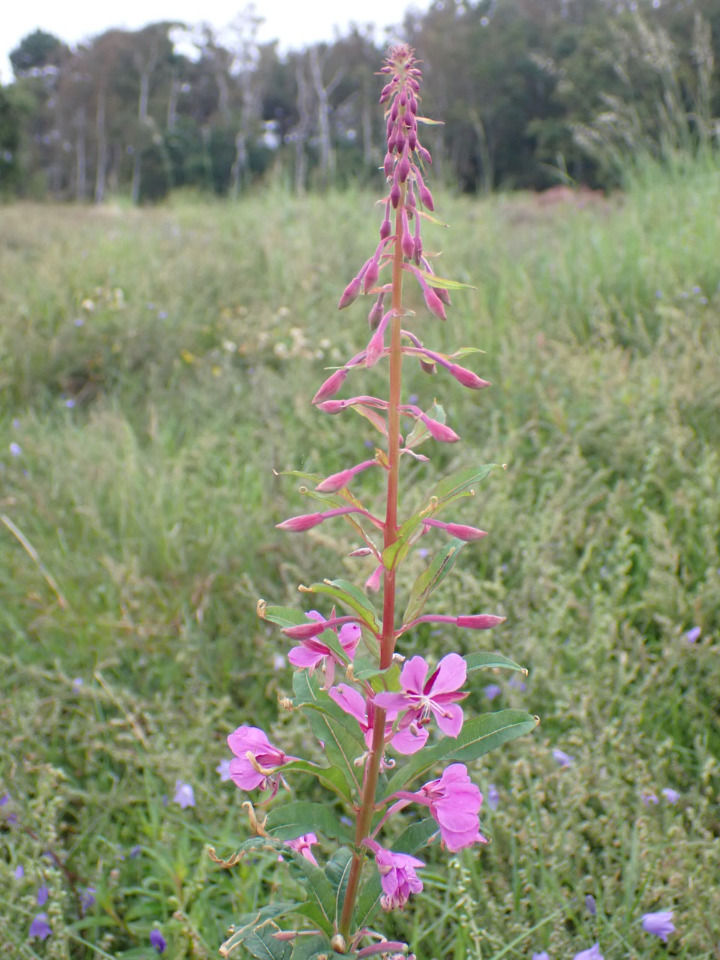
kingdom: Plantae
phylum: Tracheophyta
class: Magnoliopsida
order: Myrtales
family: Onagraceae
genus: Chamaenerion
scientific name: Chamaenerion angustifolium
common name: Gederams
